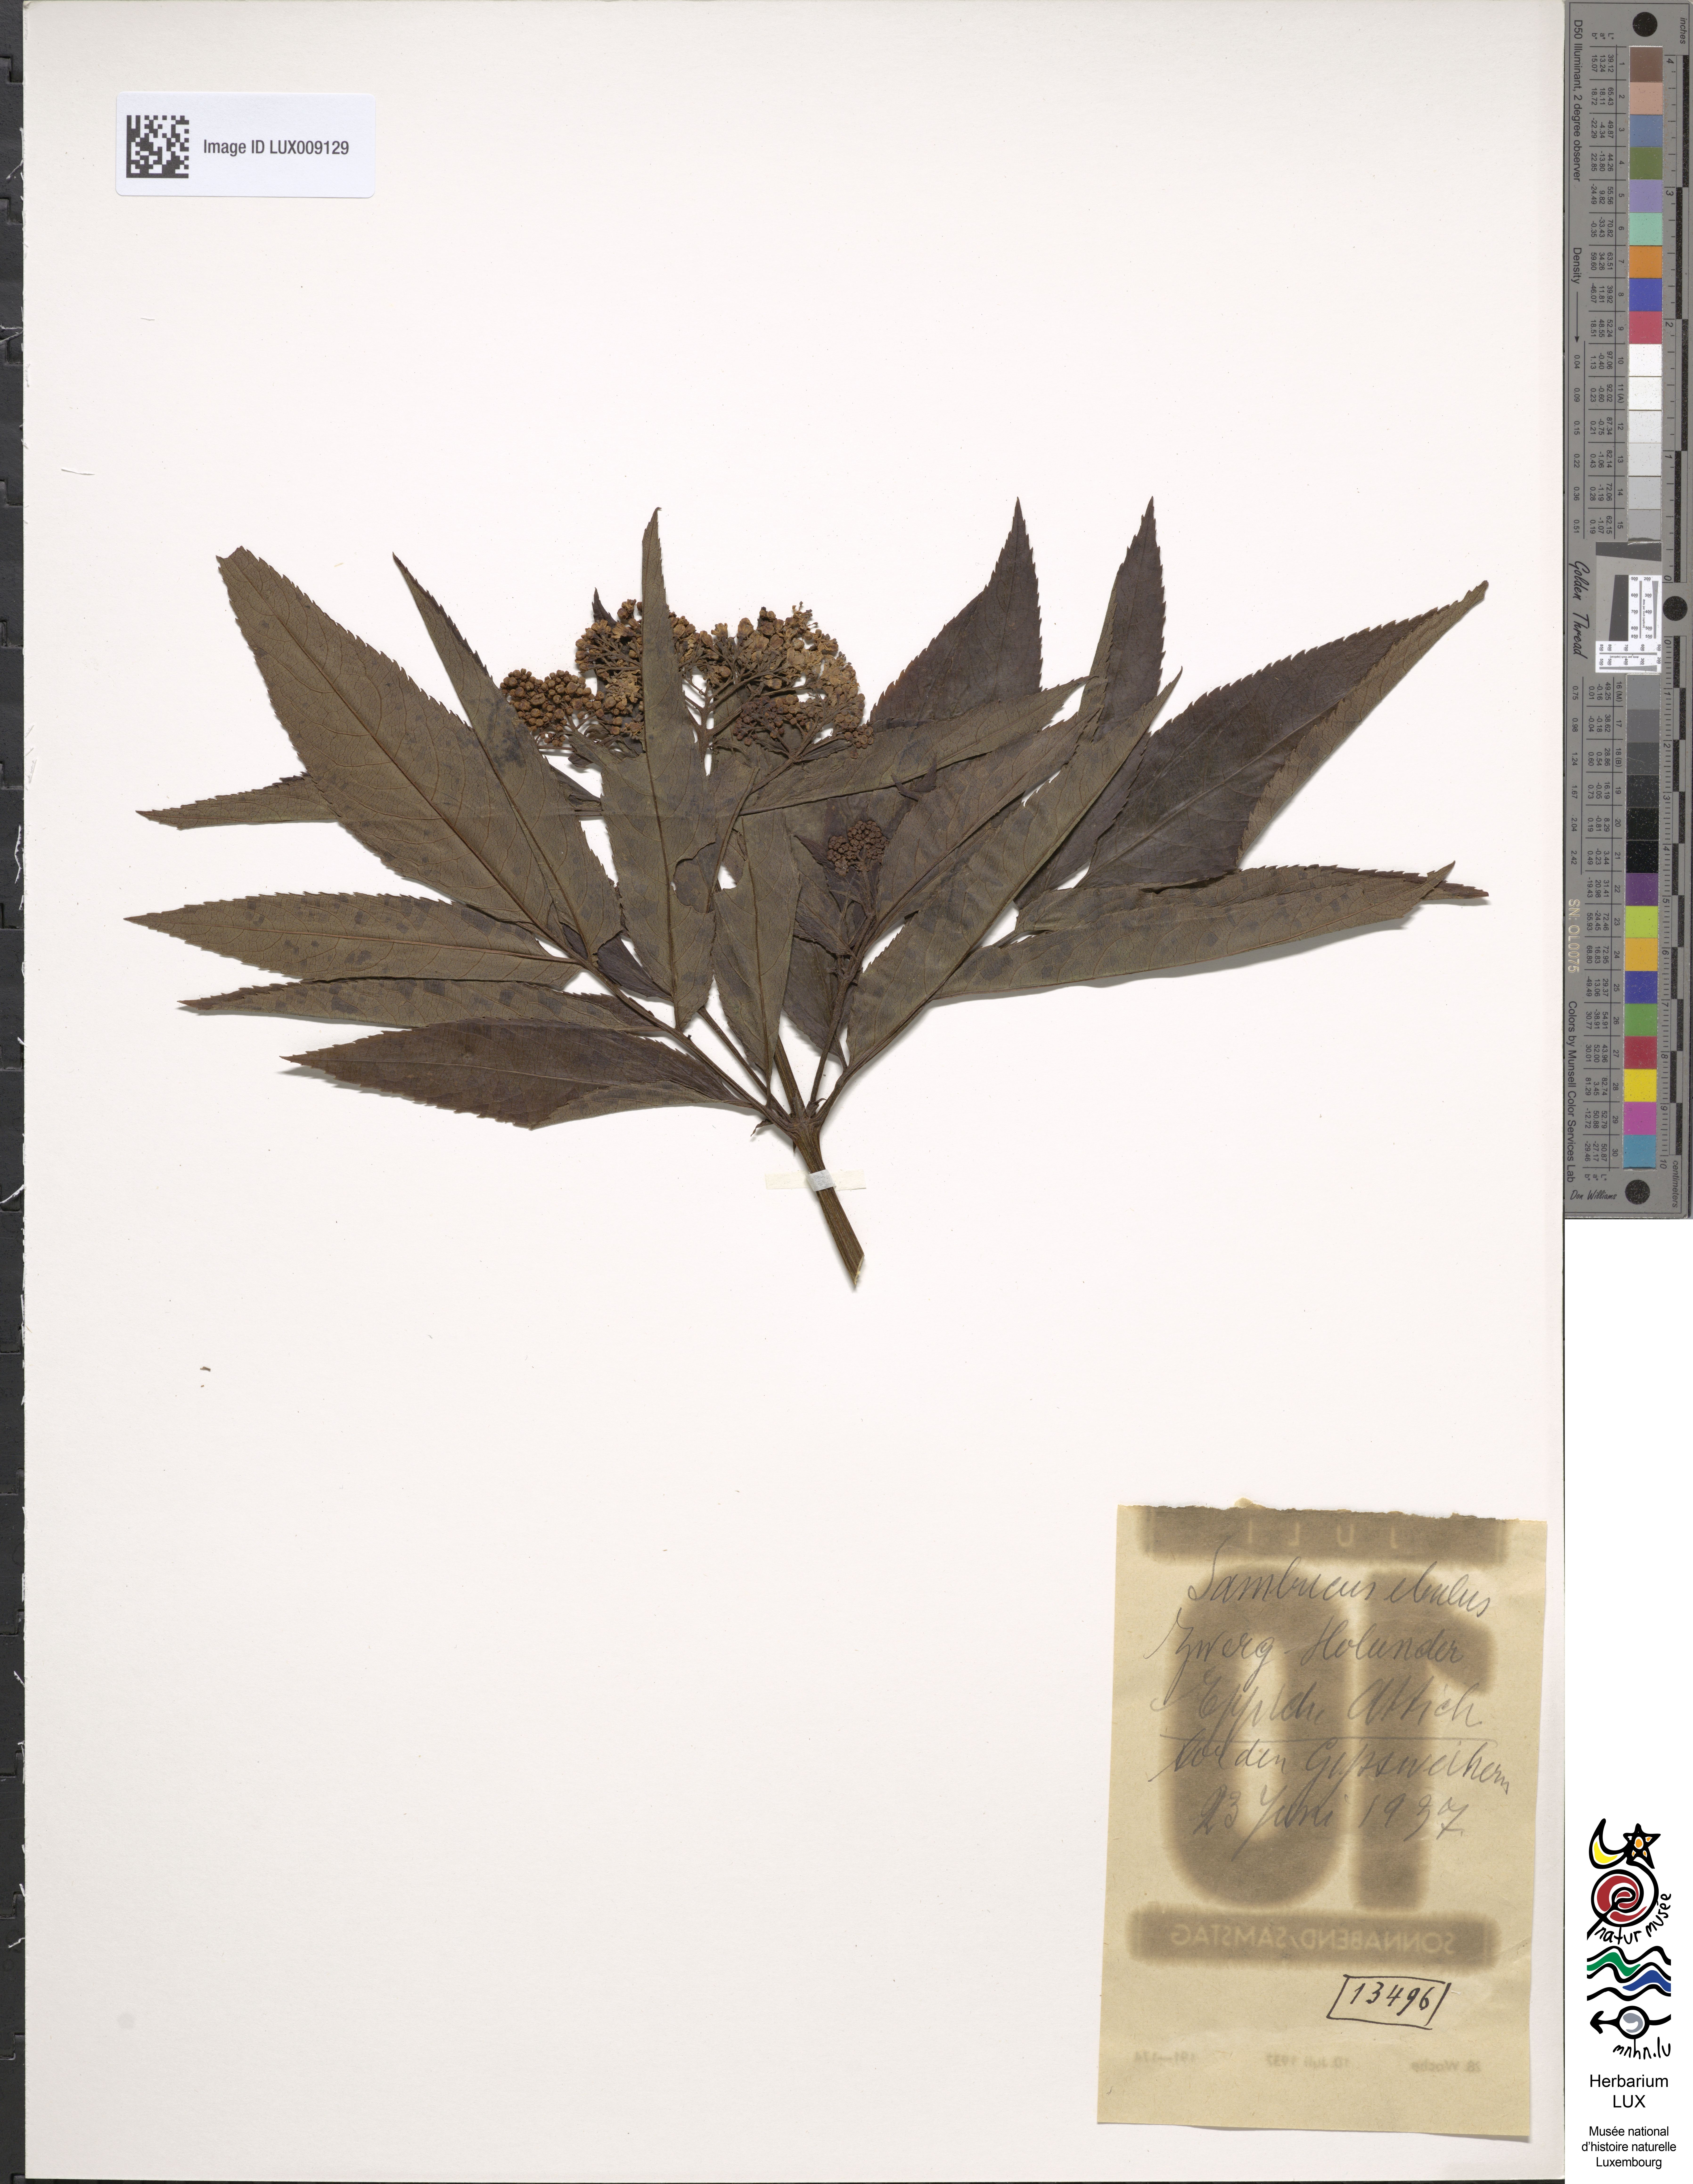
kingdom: Plantae
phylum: Tracheophyta
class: Magnoliopsida
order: Dipsacales
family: Viburnaceae
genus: Sambucus
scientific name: Sambucus ebulus
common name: Dwarf elder
